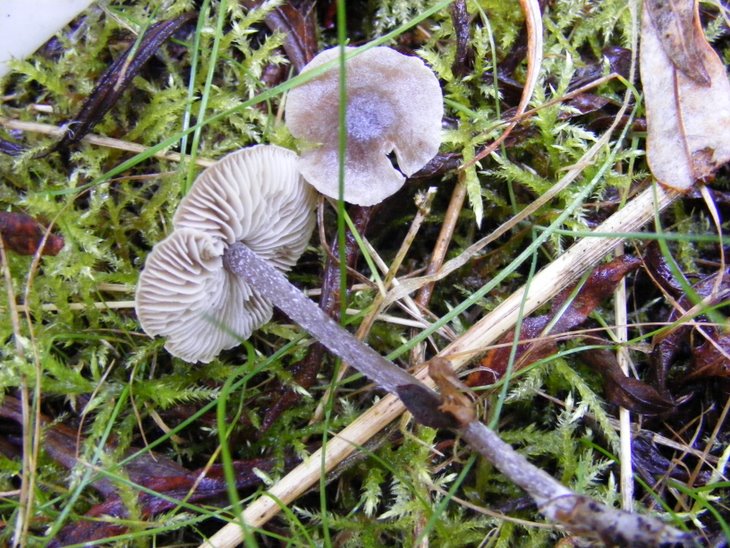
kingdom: Fungi
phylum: Basidiomycota
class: Agaricomycetes
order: Agaricales
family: Lyophyllaceae
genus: Myochromella
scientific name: Myochromella boudieri
